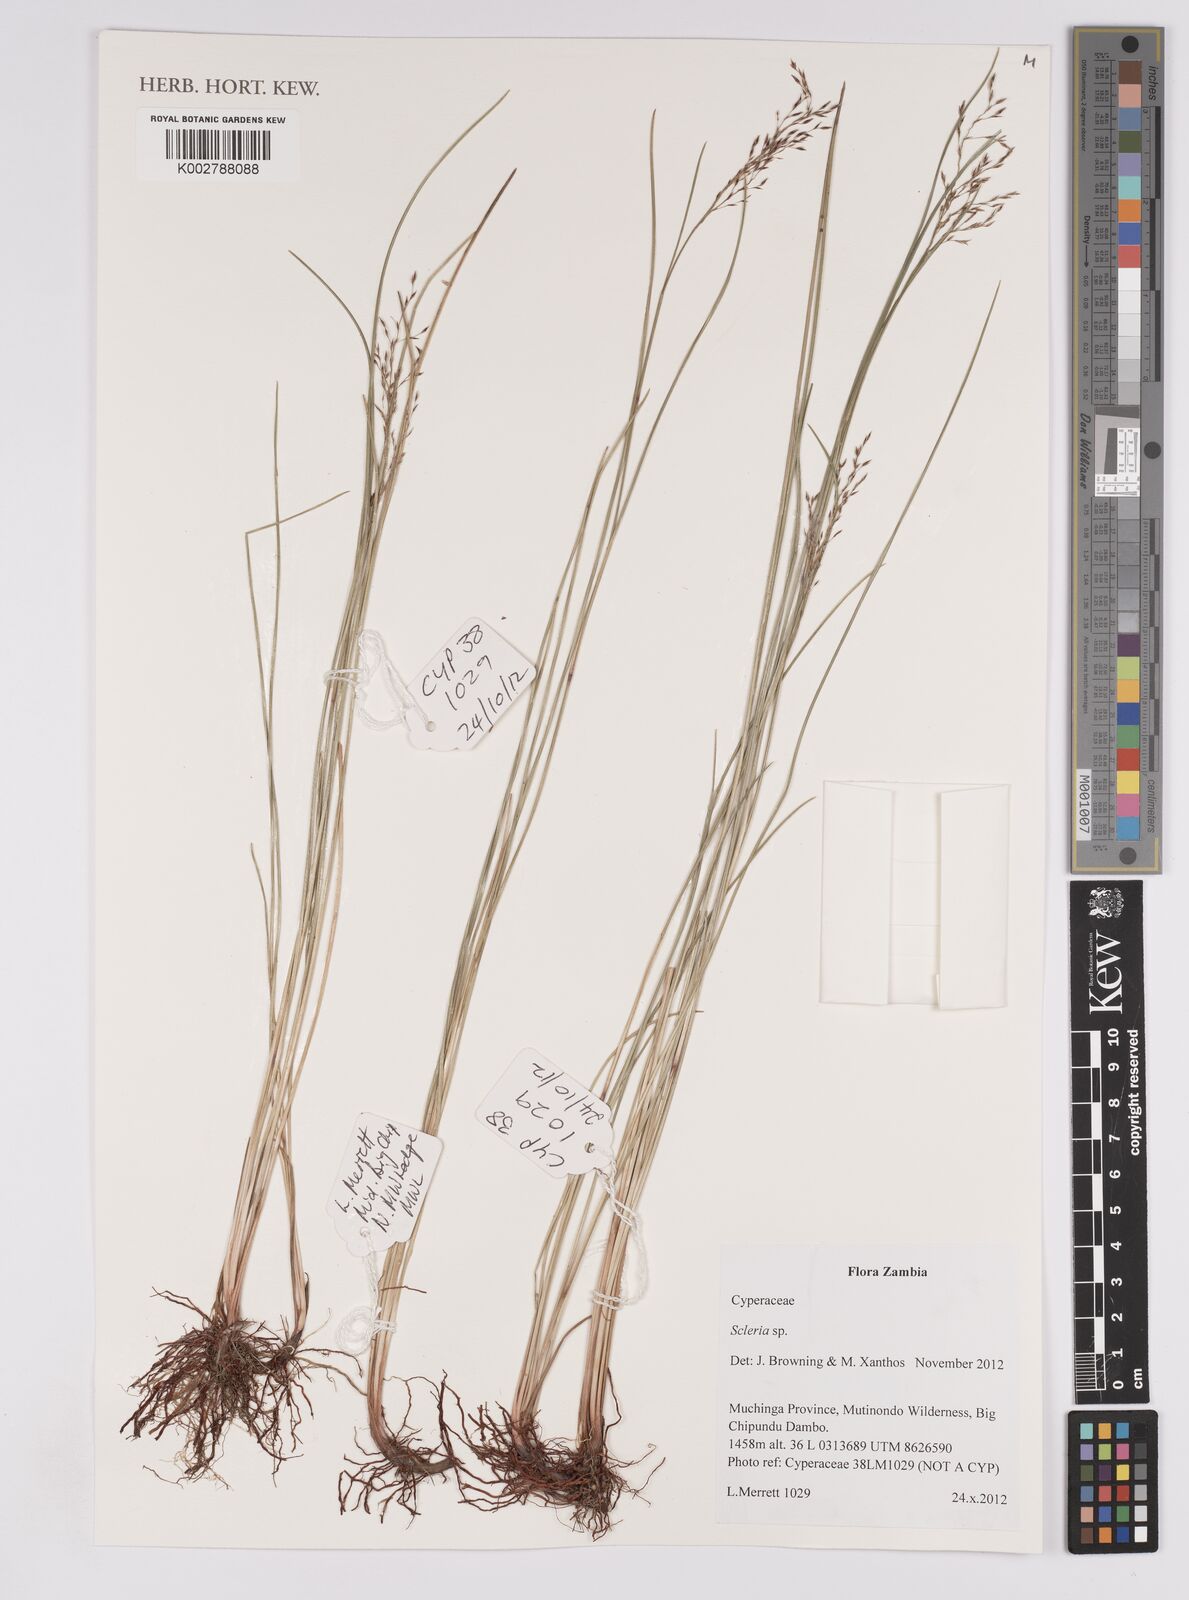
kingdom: Plantae
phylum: Tracheophyta
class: Liliopsida
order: Poales
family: Cyperaceae
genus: Scleria
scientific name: Scleria pooides
